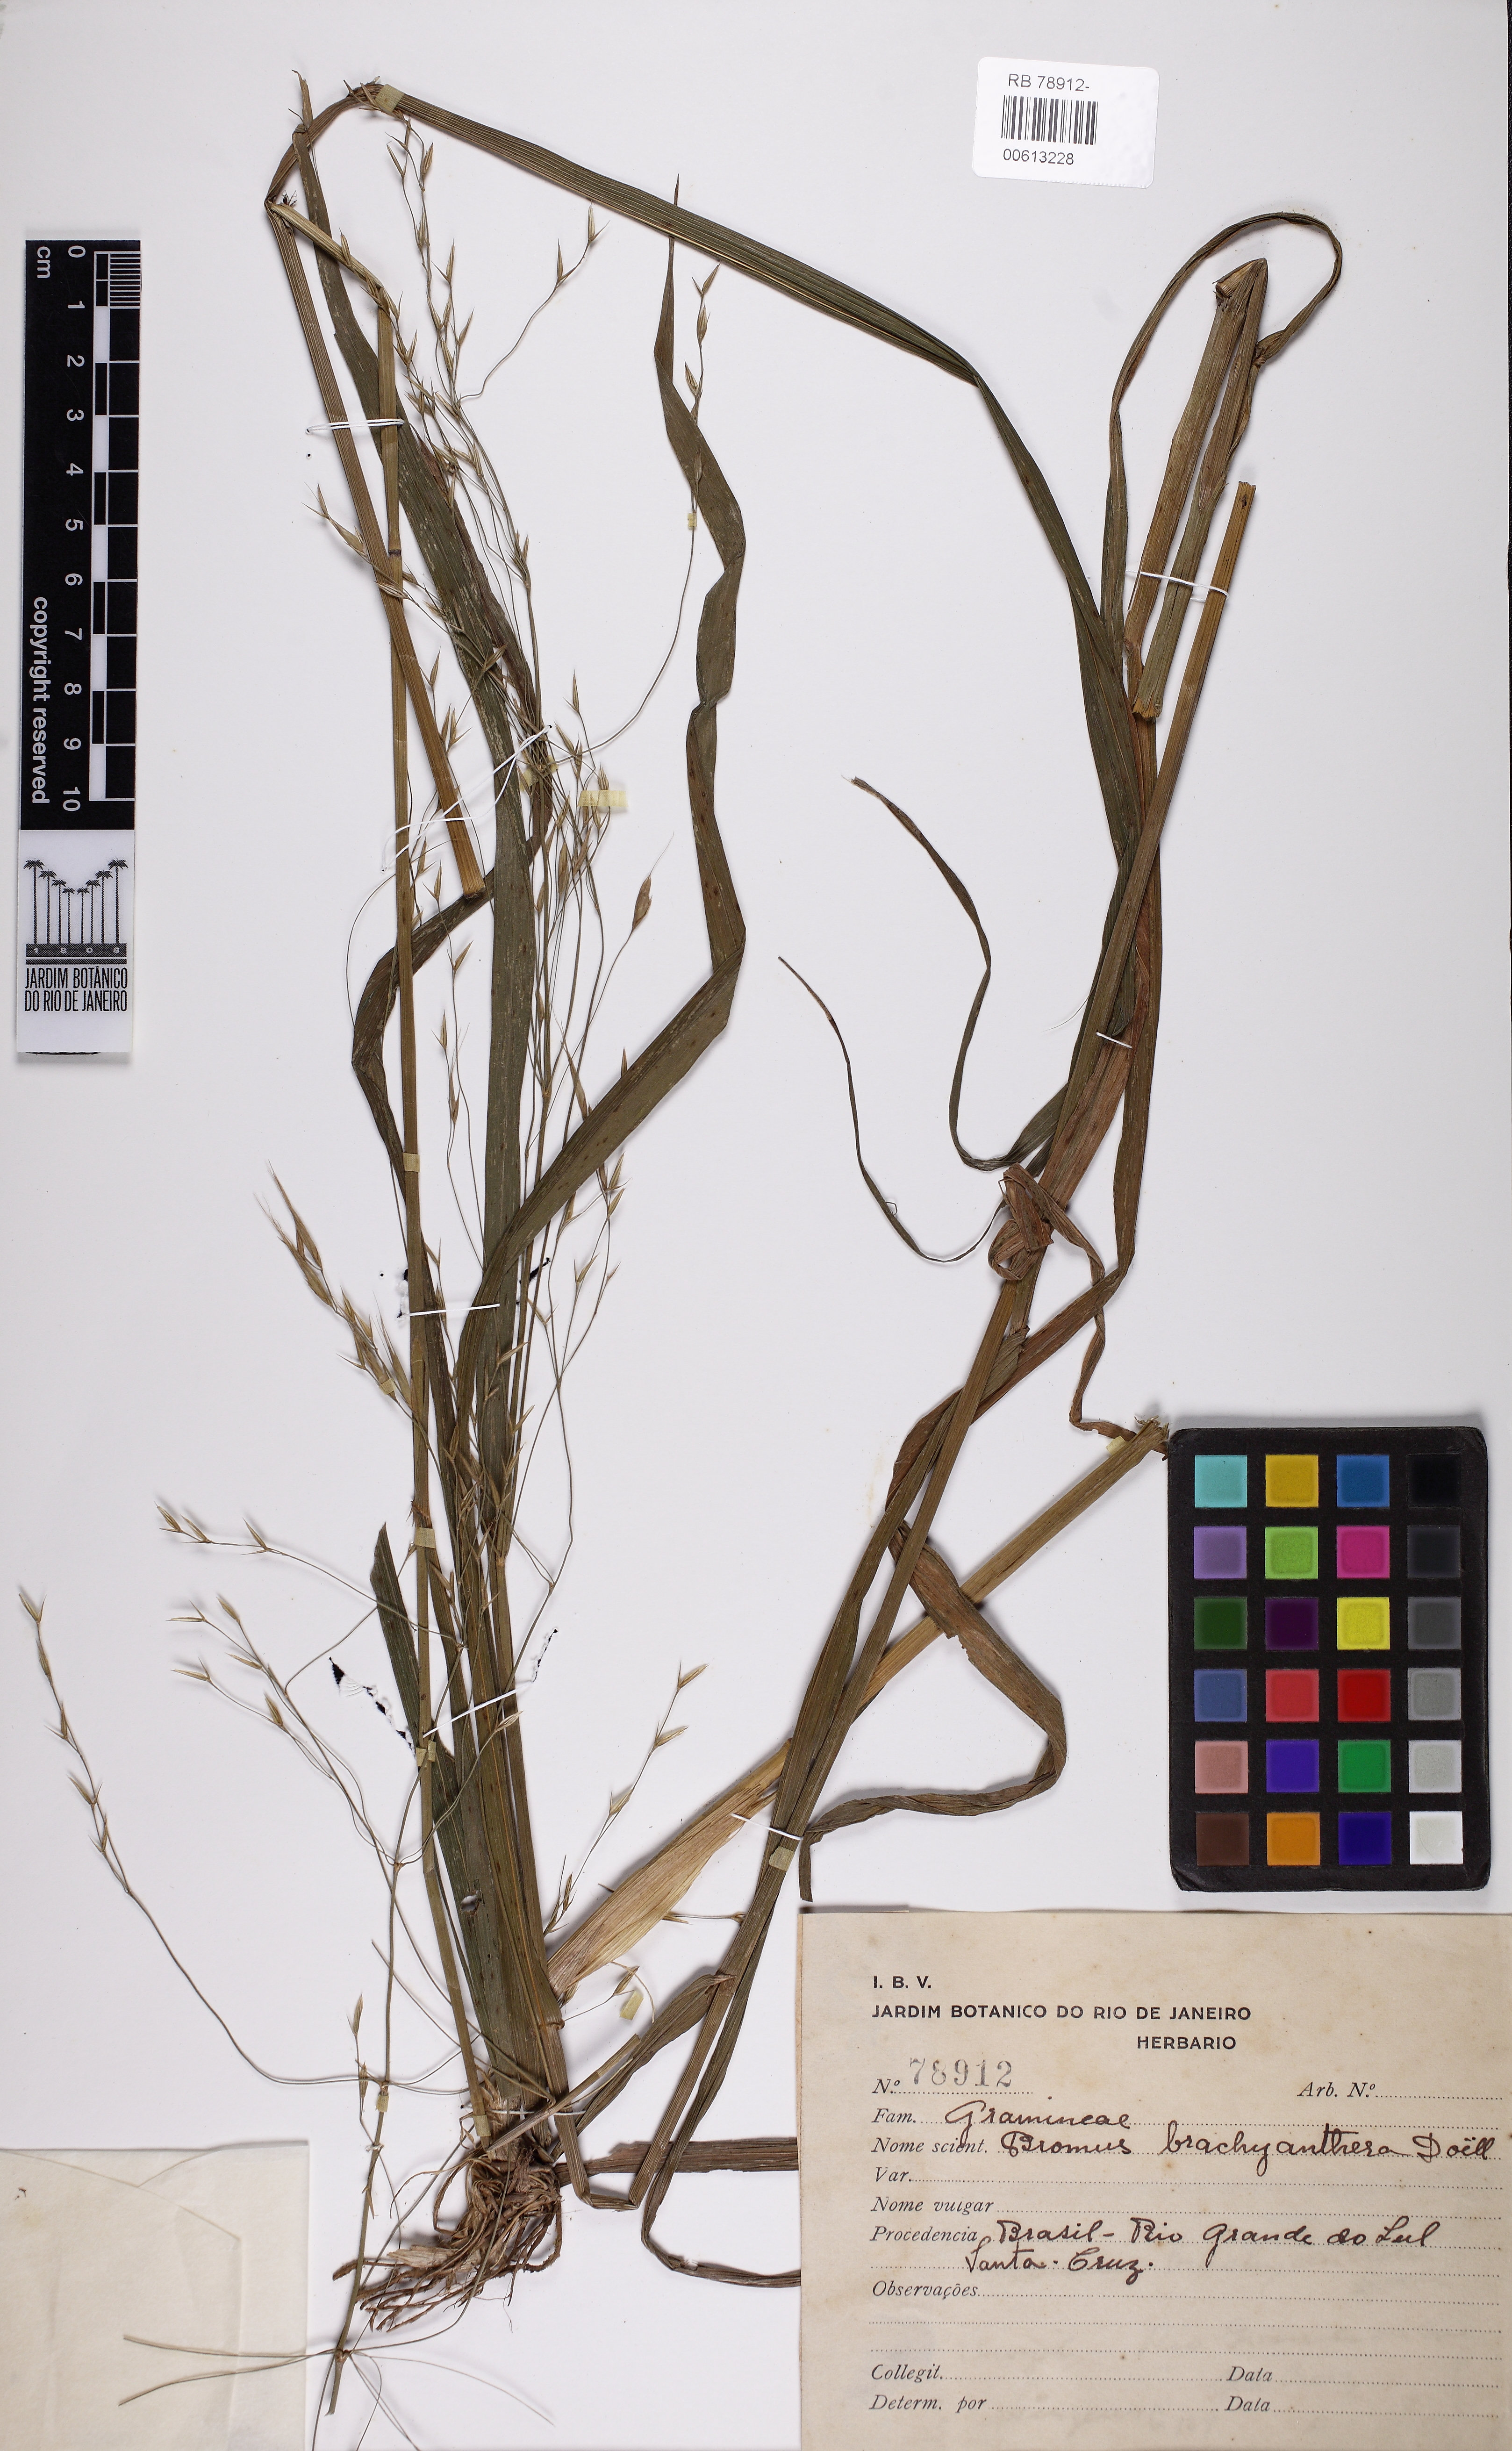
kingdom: Plantae
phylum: Tracheophyta
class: Liliopsida
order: Poales
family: Poaceae
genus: Bromus
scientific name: Bromus brachyantherus
